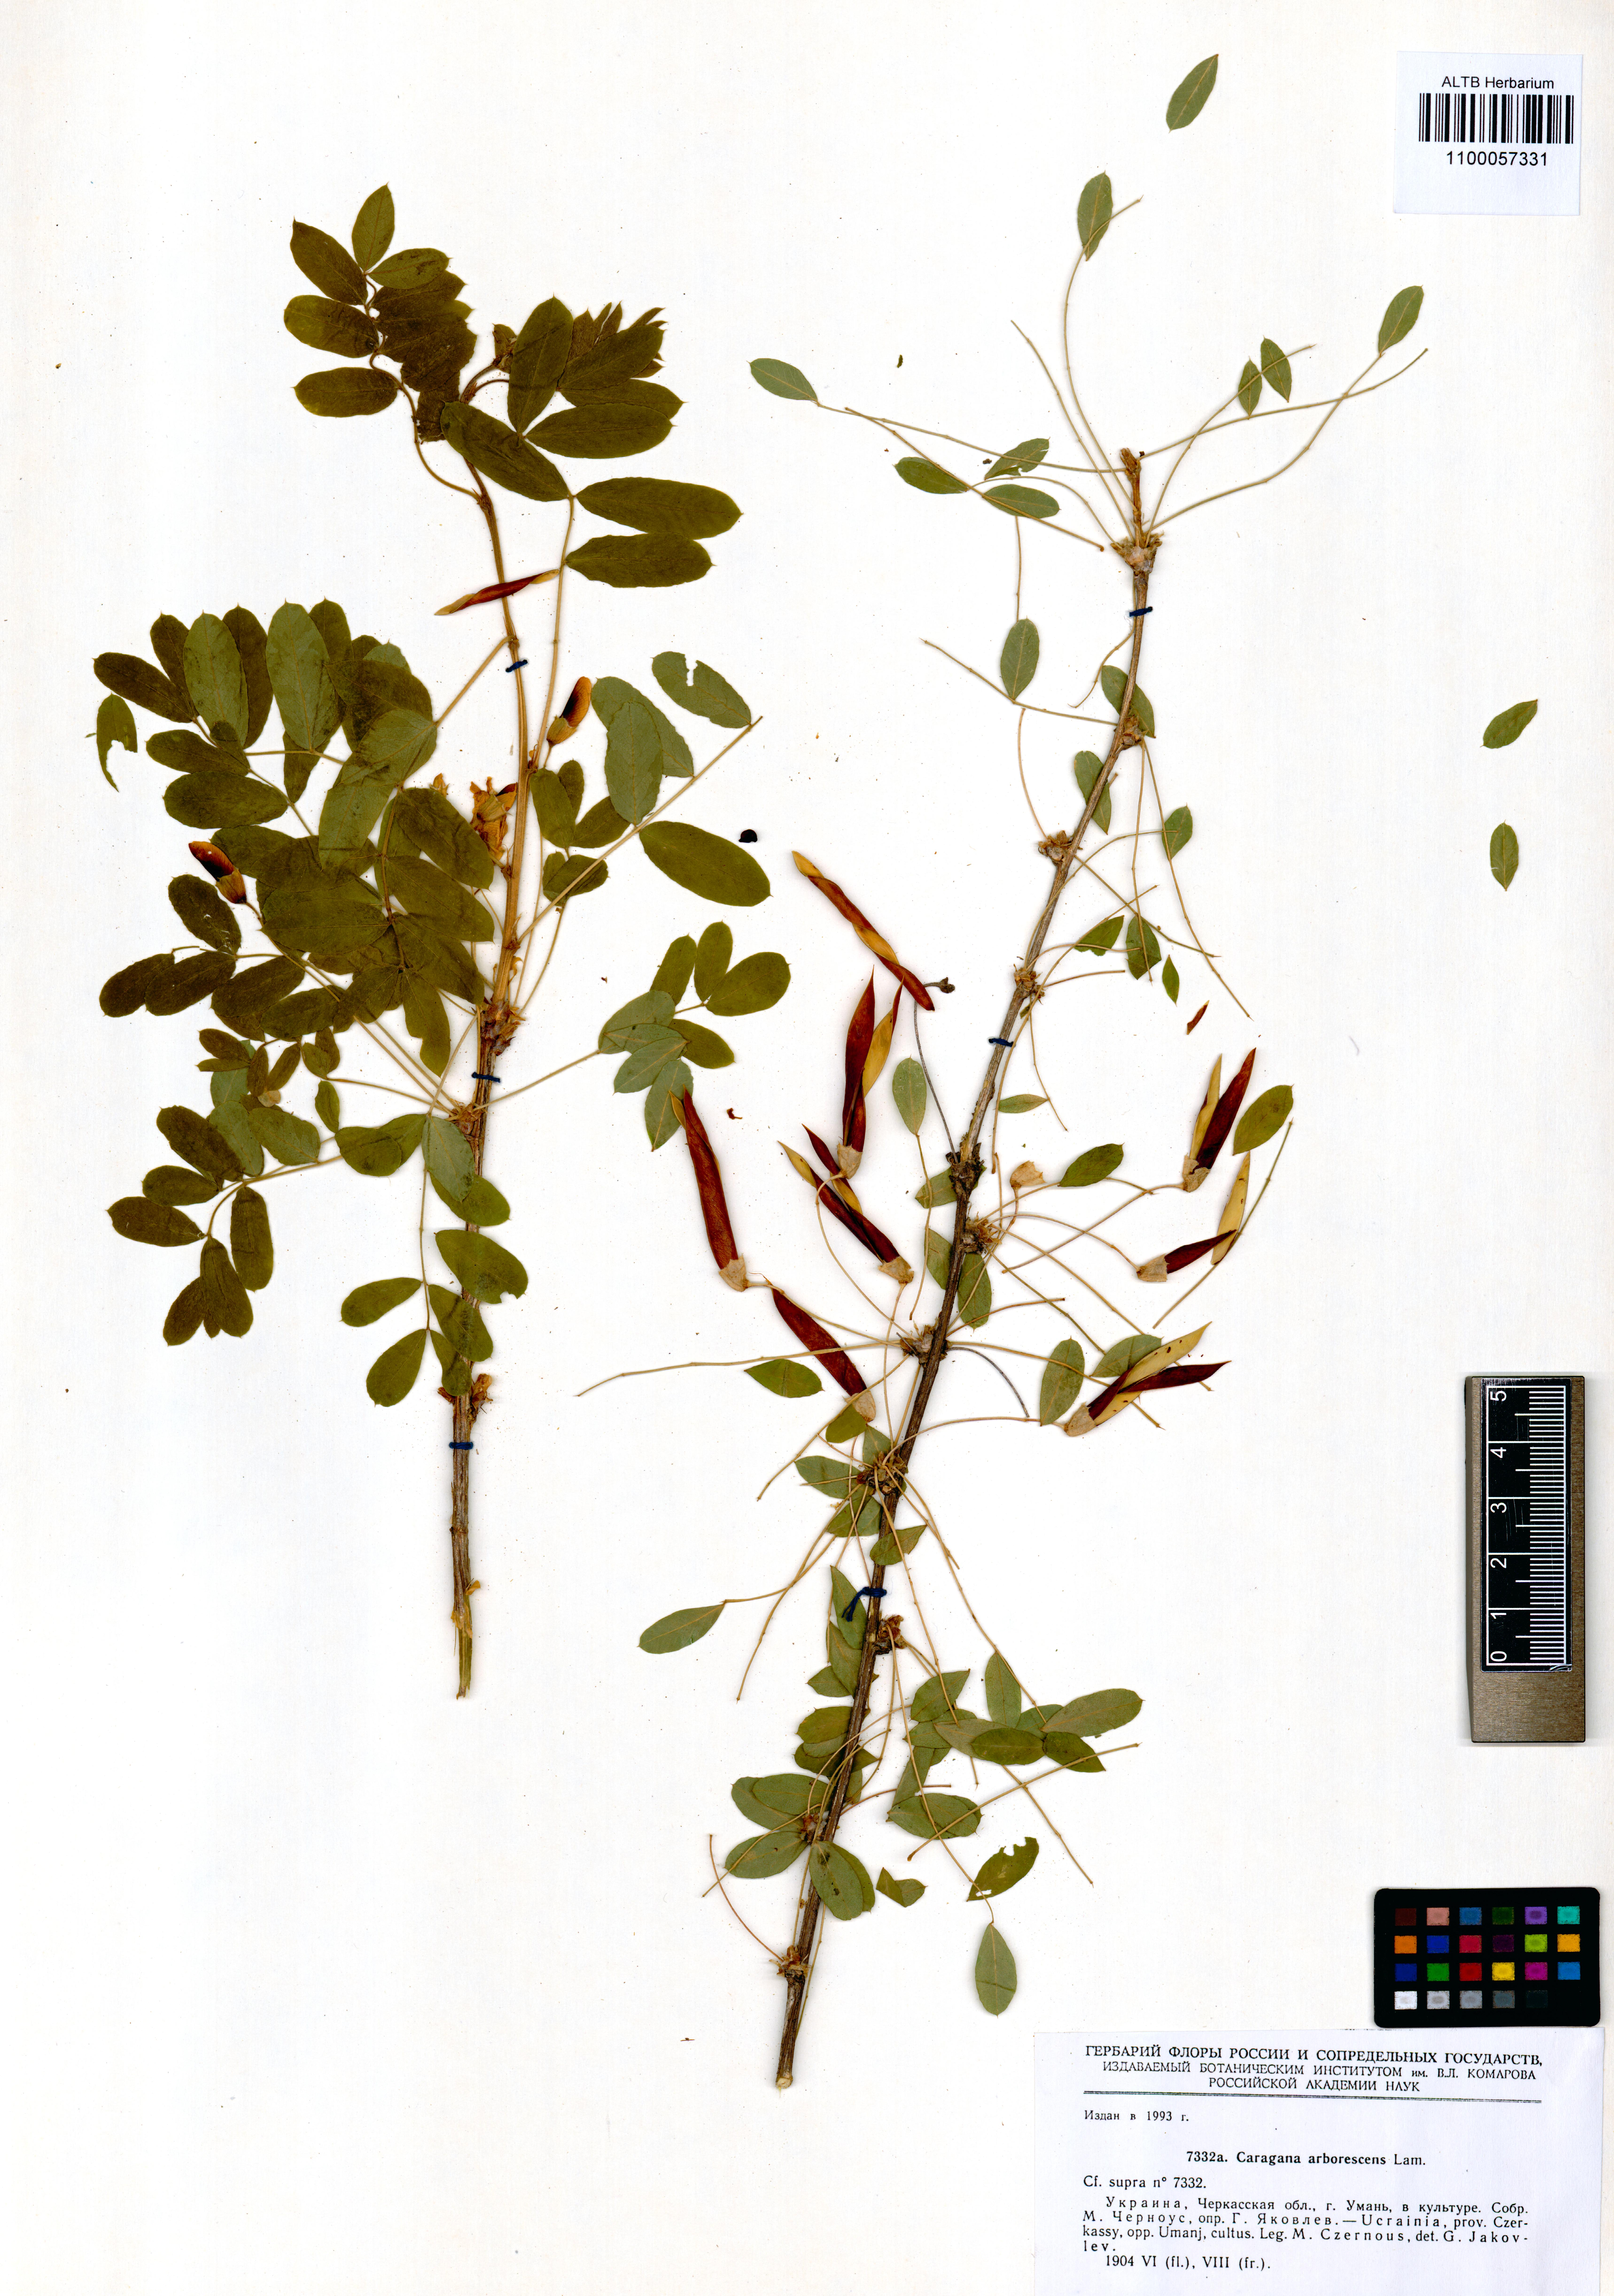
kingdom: Plantae
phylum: Tracheophyta
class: Magnoliopsida
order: Fabales
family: Fabaceae
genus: Caragana
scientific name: Caragana arborescens
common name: Siberian peashrub
